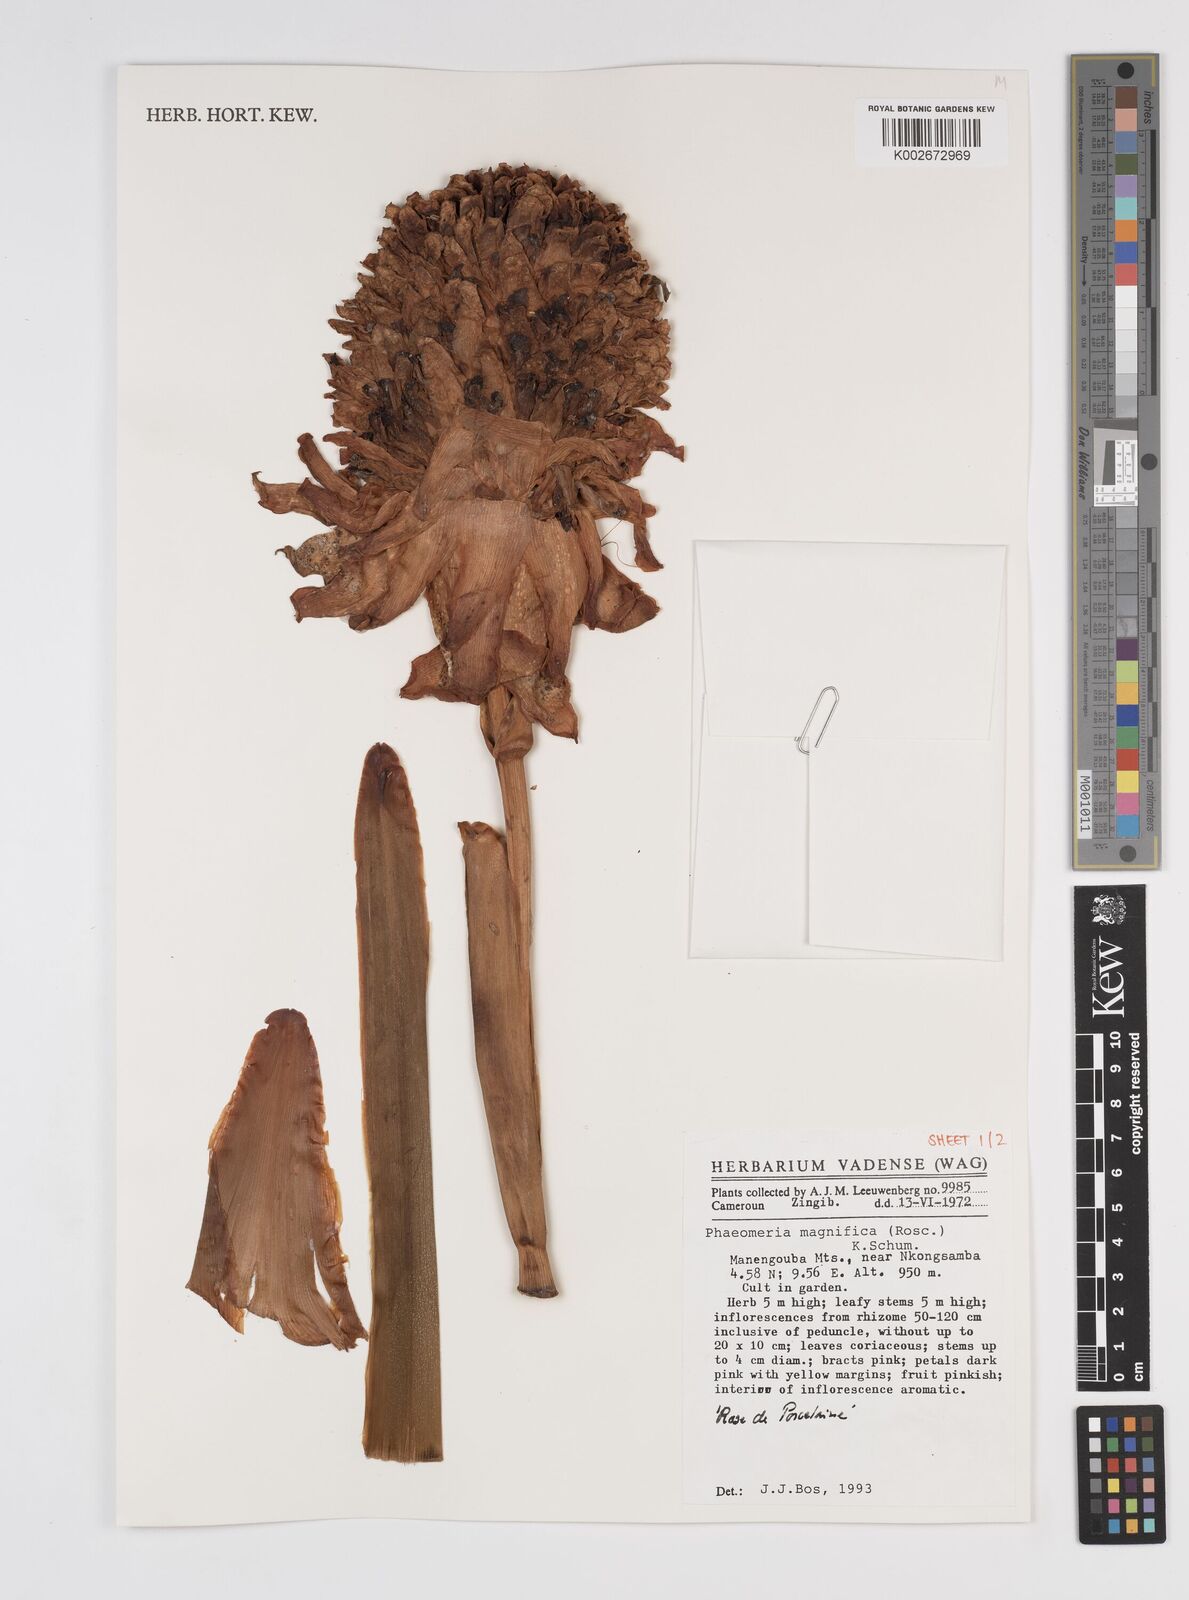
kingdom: Plantae
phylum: Tracheophyta
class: Liliopsida
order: Zingiberales
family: Zingiberaceae
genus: Etlingera
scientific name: Etlingera elatior
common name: Philippine waxflower
